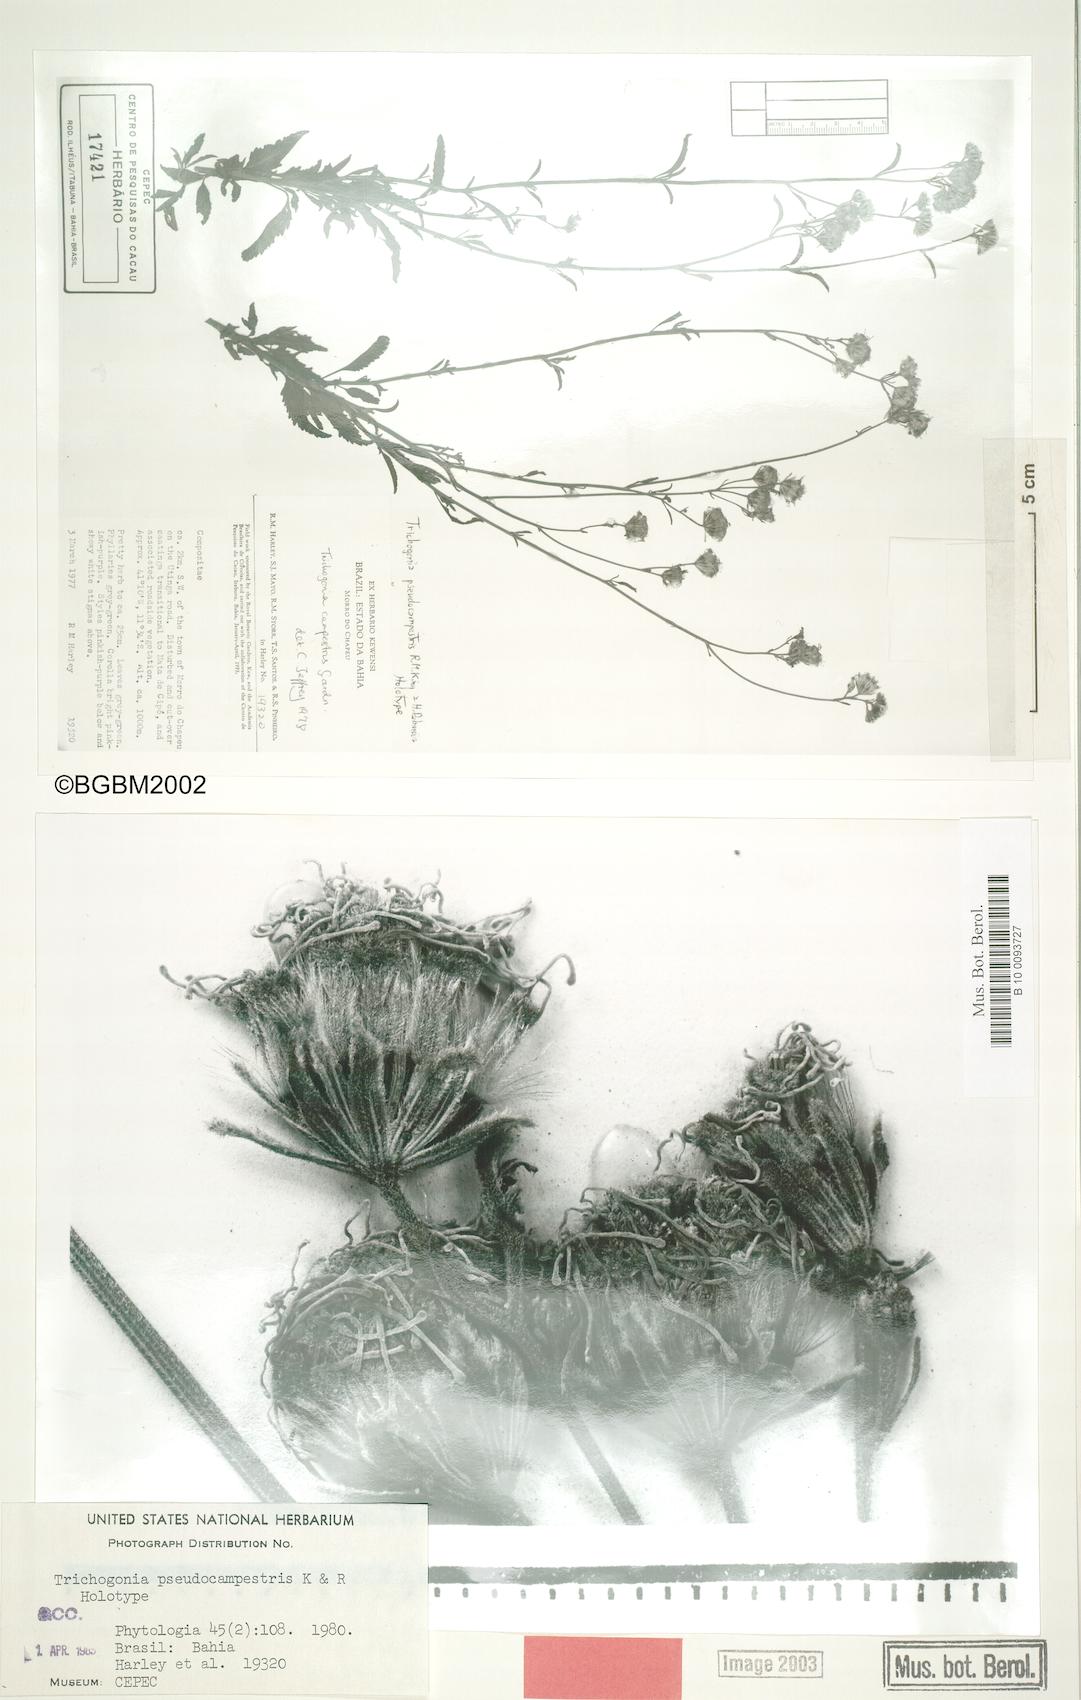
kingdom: Plantae
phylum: Tracheophyta
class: Magnoliopsida
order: Asterales
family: Asteraceae
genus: Trichogonia
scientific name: Trichogonia campestris
